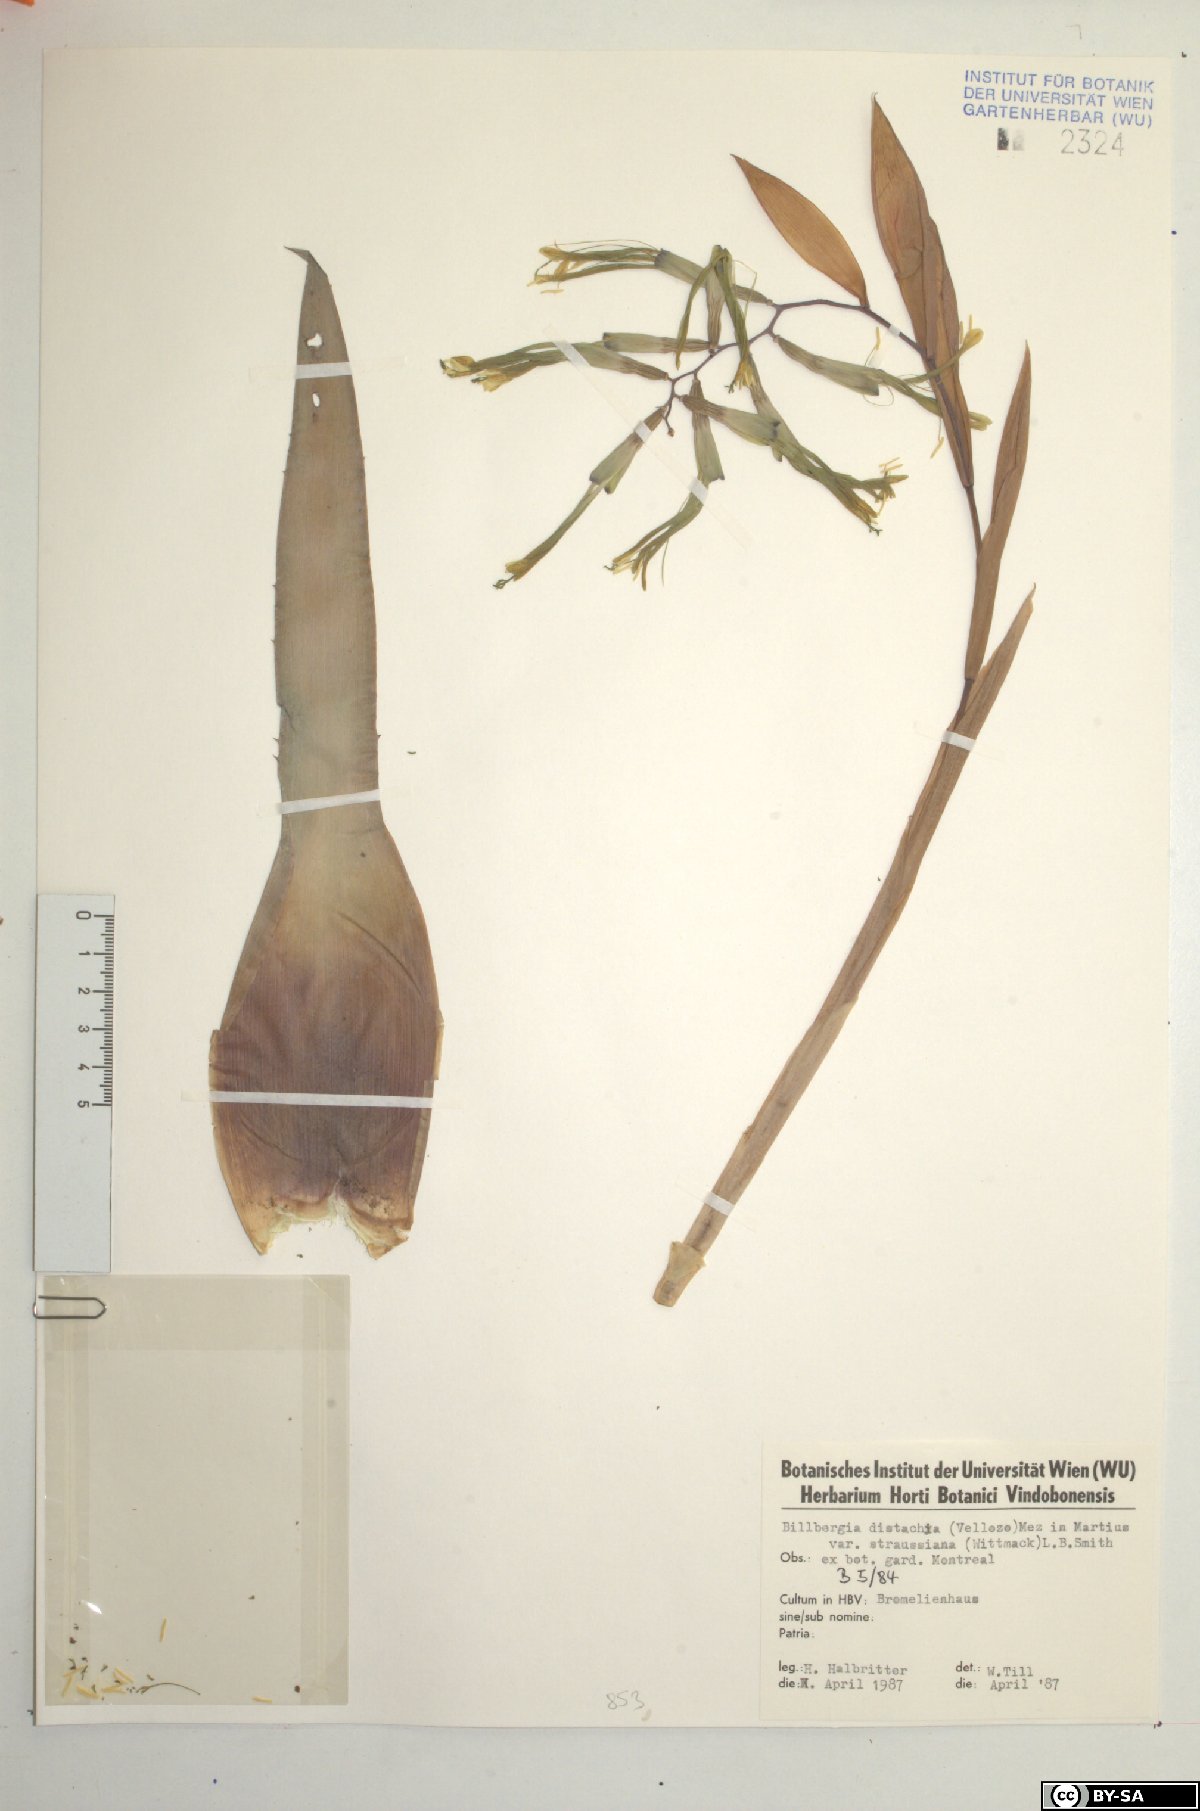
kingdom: Plantae
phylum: Tracheophyta
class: Liliopsida
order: Poales
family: Bromeliaceae
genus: Billbergia
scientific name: Billbergia distachia
